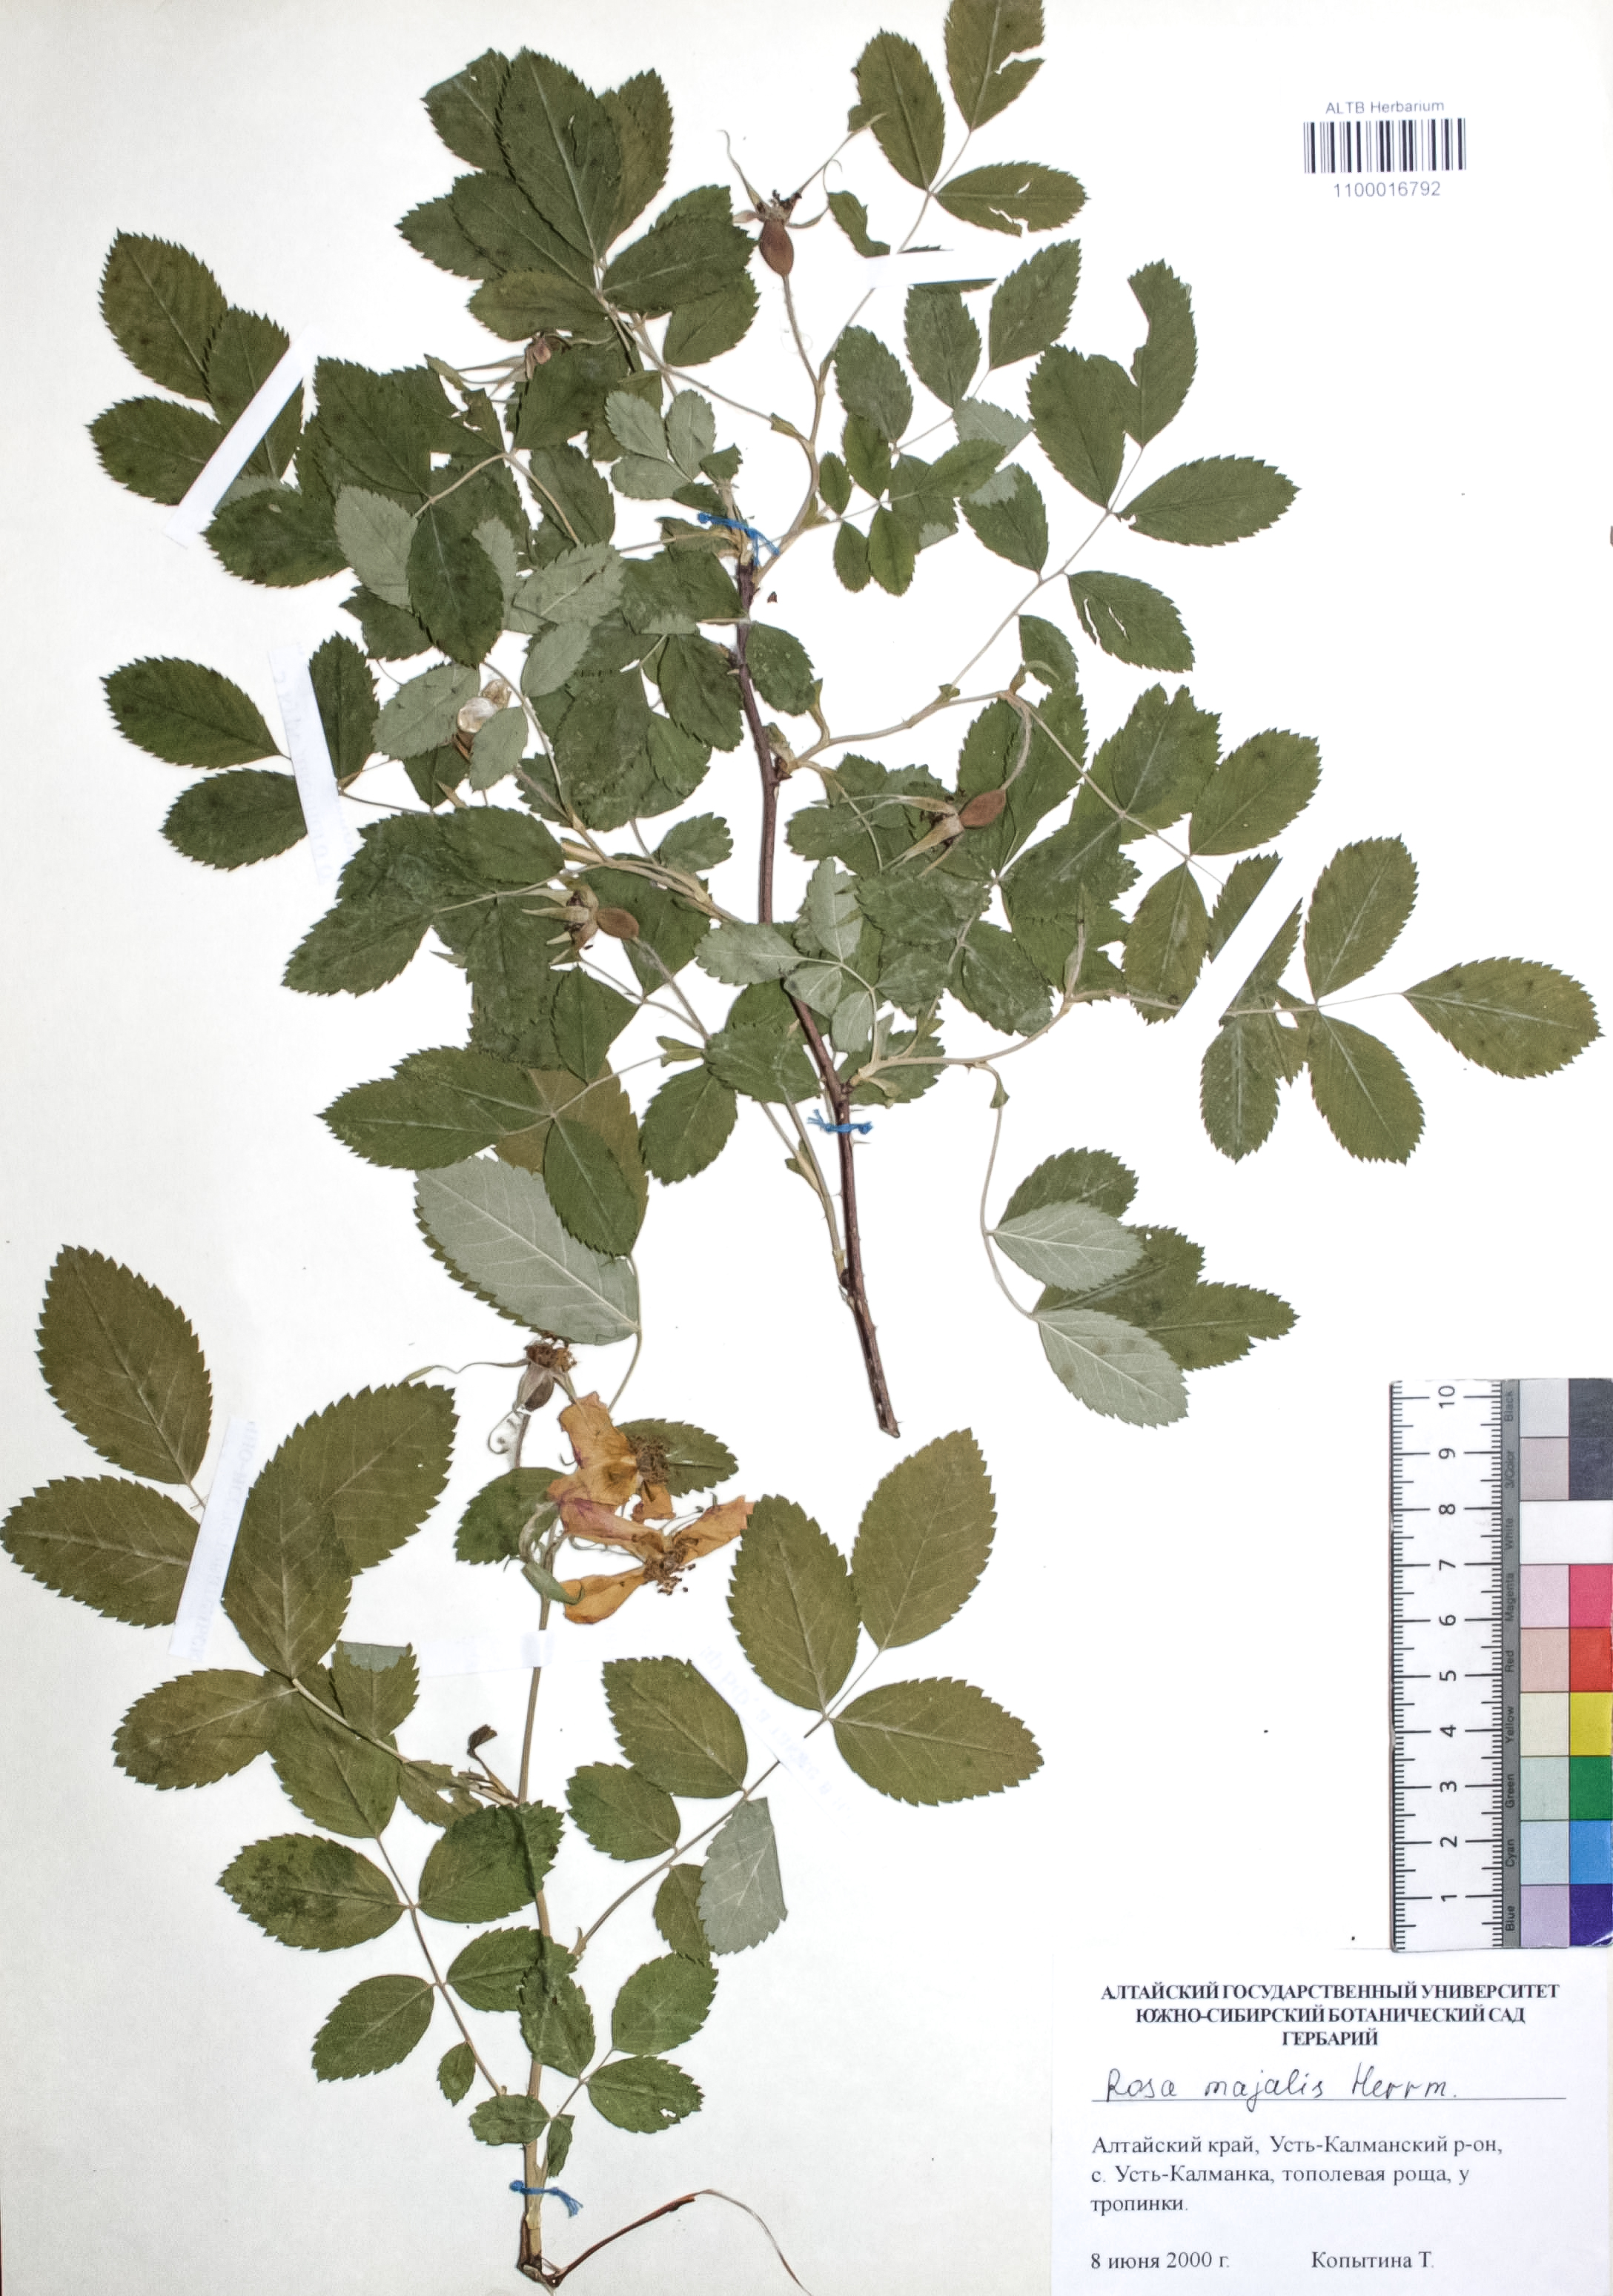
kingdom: Plantae
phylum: Tracheophyta
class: Magnoliopsida
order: Rosales
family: Rosaceae
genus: Rosa
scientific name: Rosa majalis
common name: Cinnamon rose
